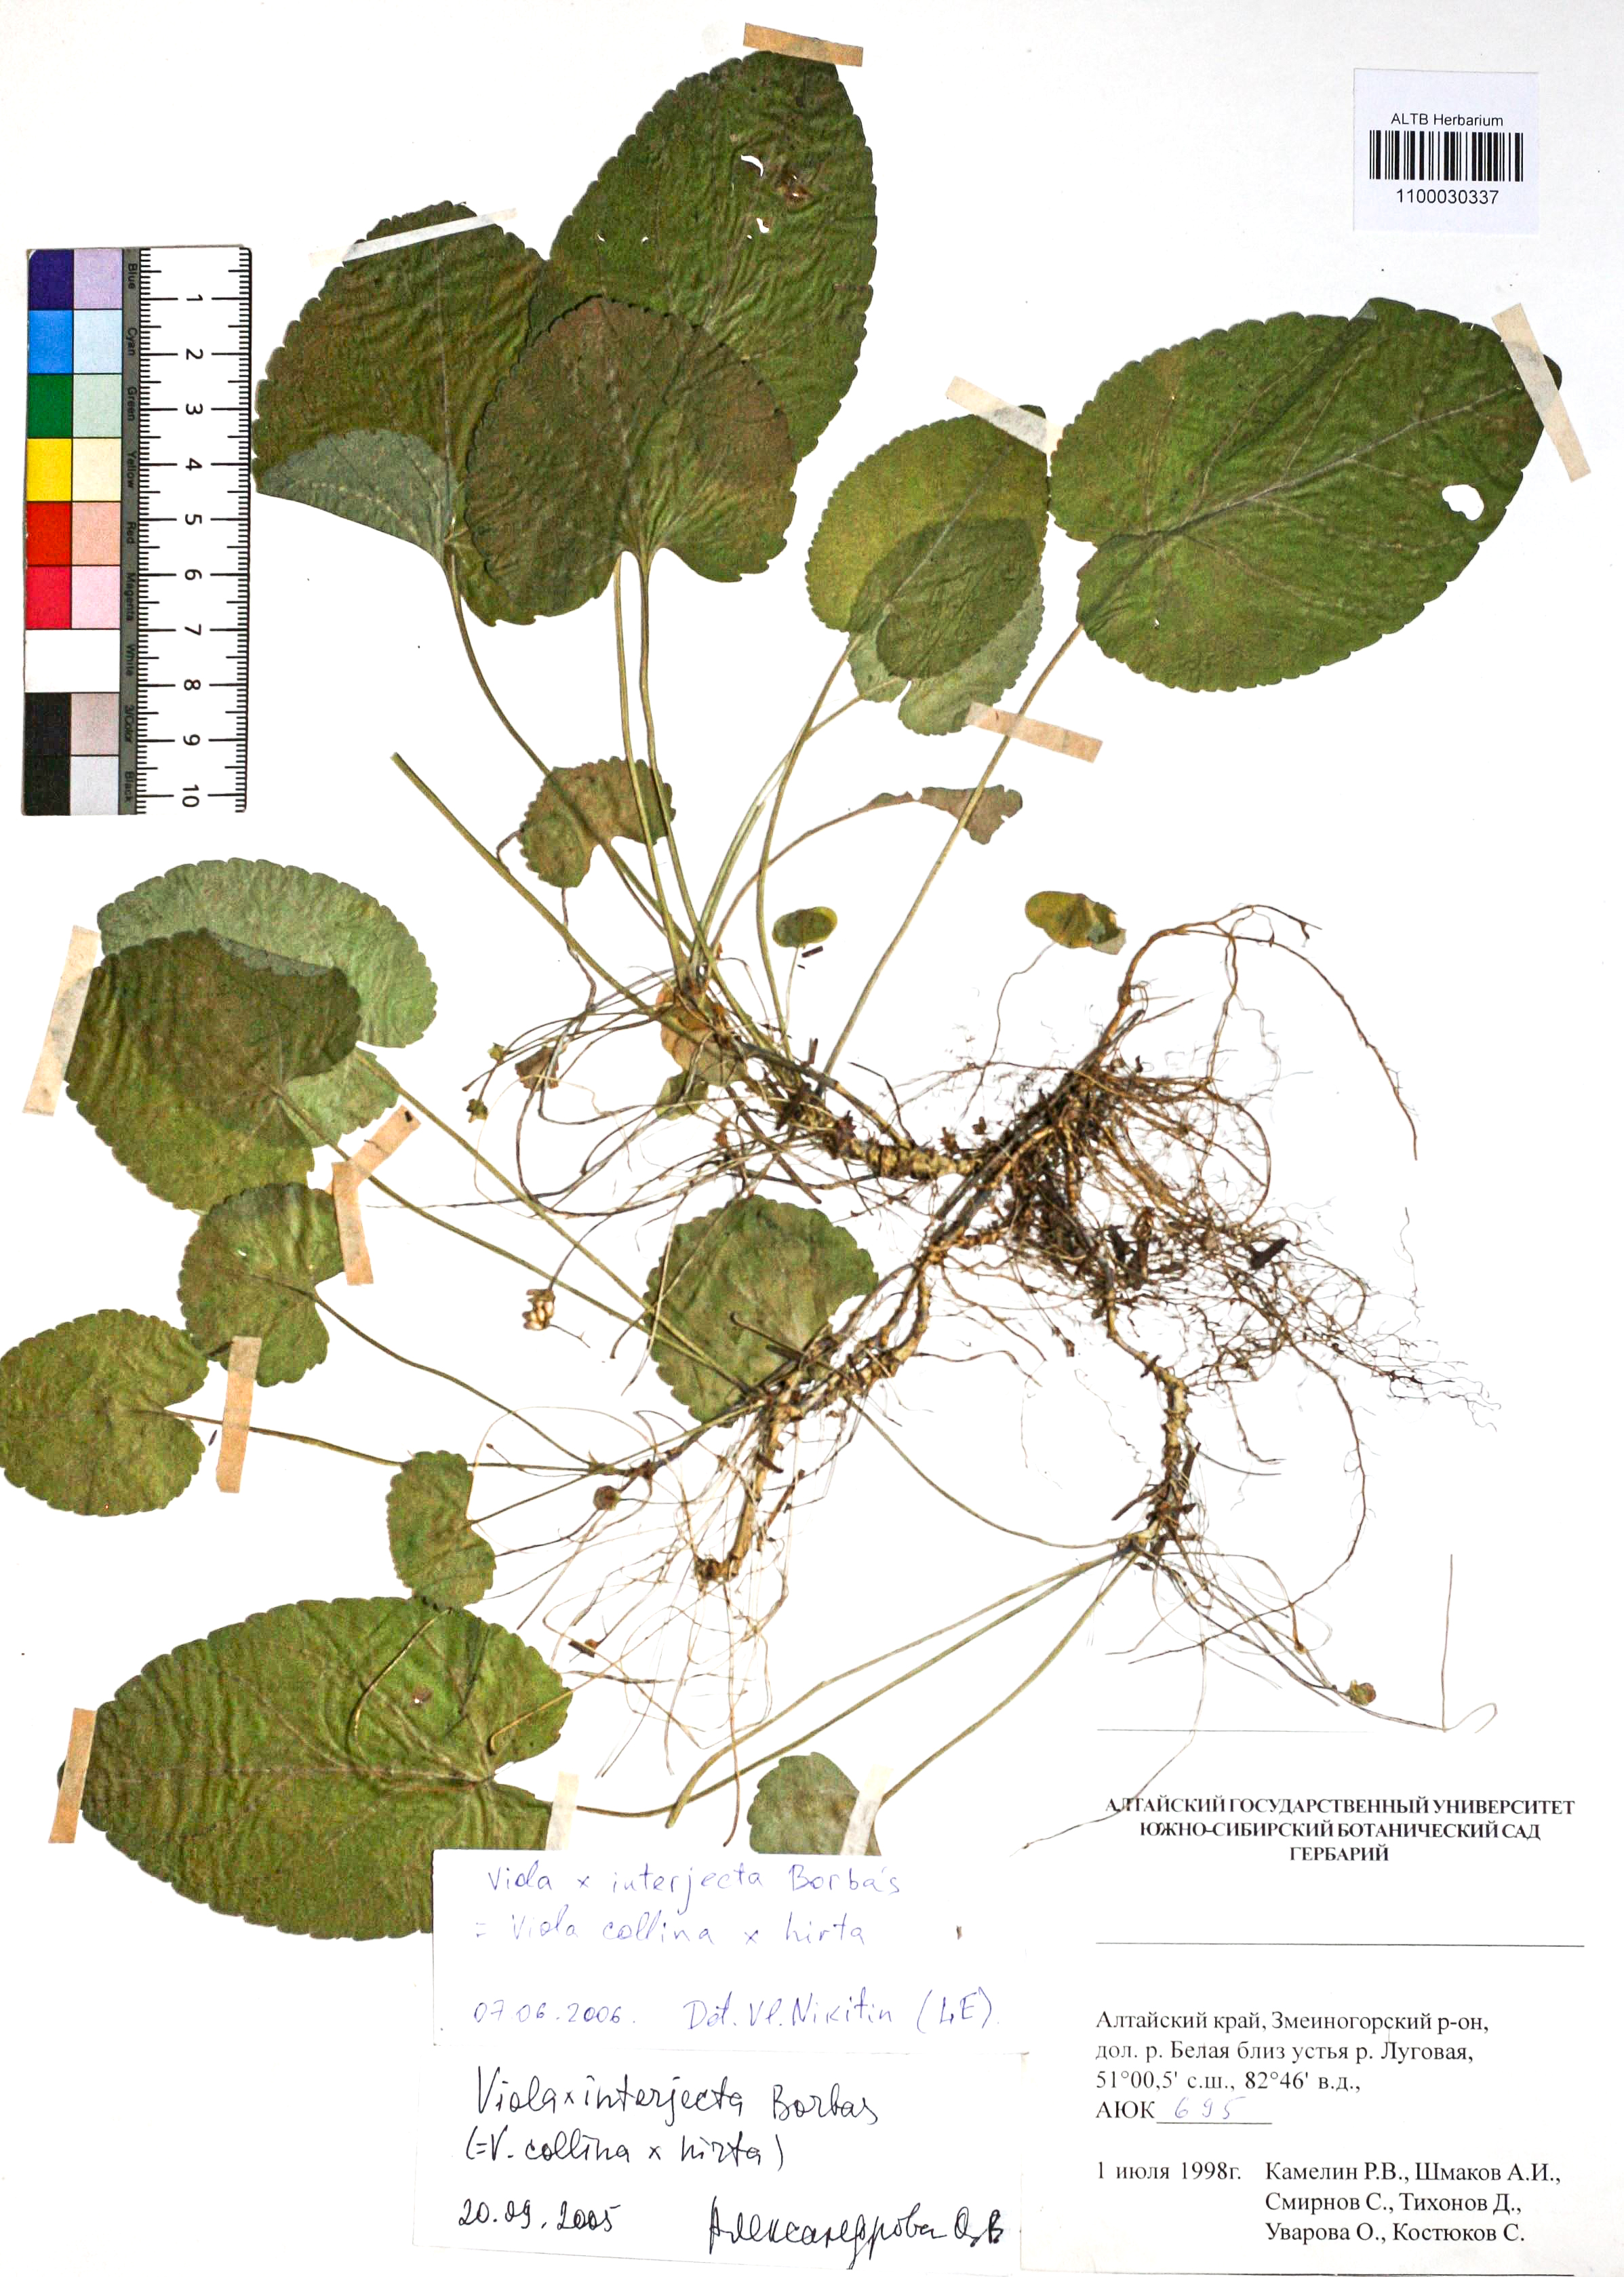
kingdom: Plantae
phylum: Tracheophyta
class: Magnoliopsida
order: Malpighiales
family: Violaceae
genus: Viola
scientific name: Viola interjecta
